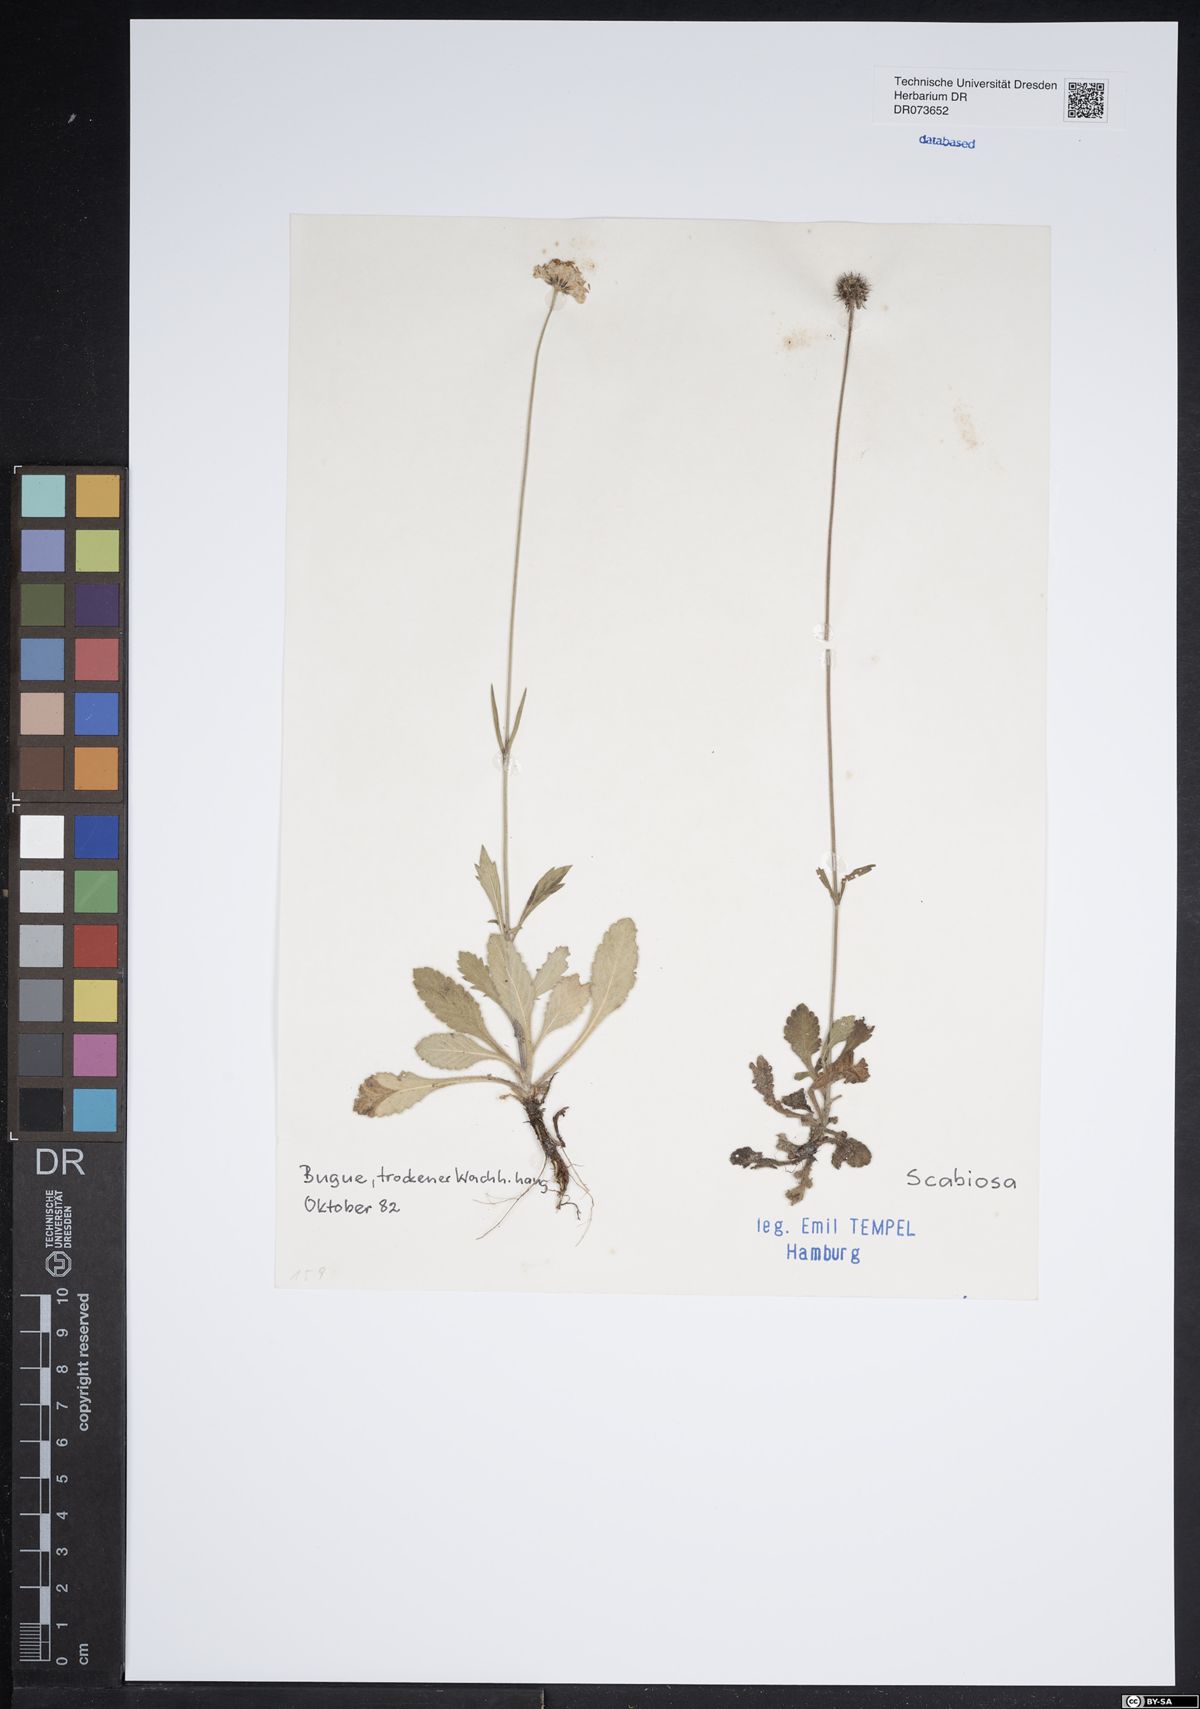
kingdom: Plantae
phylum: Tracheophyta
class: Magnoliopsida
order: Dipsacales
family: Caprifoliaceae
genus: Scabiosa
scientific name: Scabiosa
